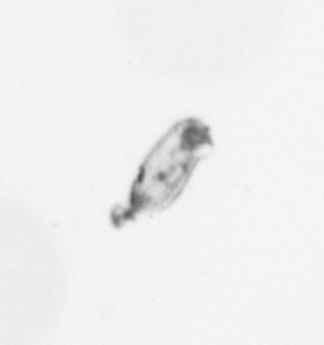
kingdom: Animalia
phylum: Arthropoda
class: Copepoda
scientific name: Copepoda
